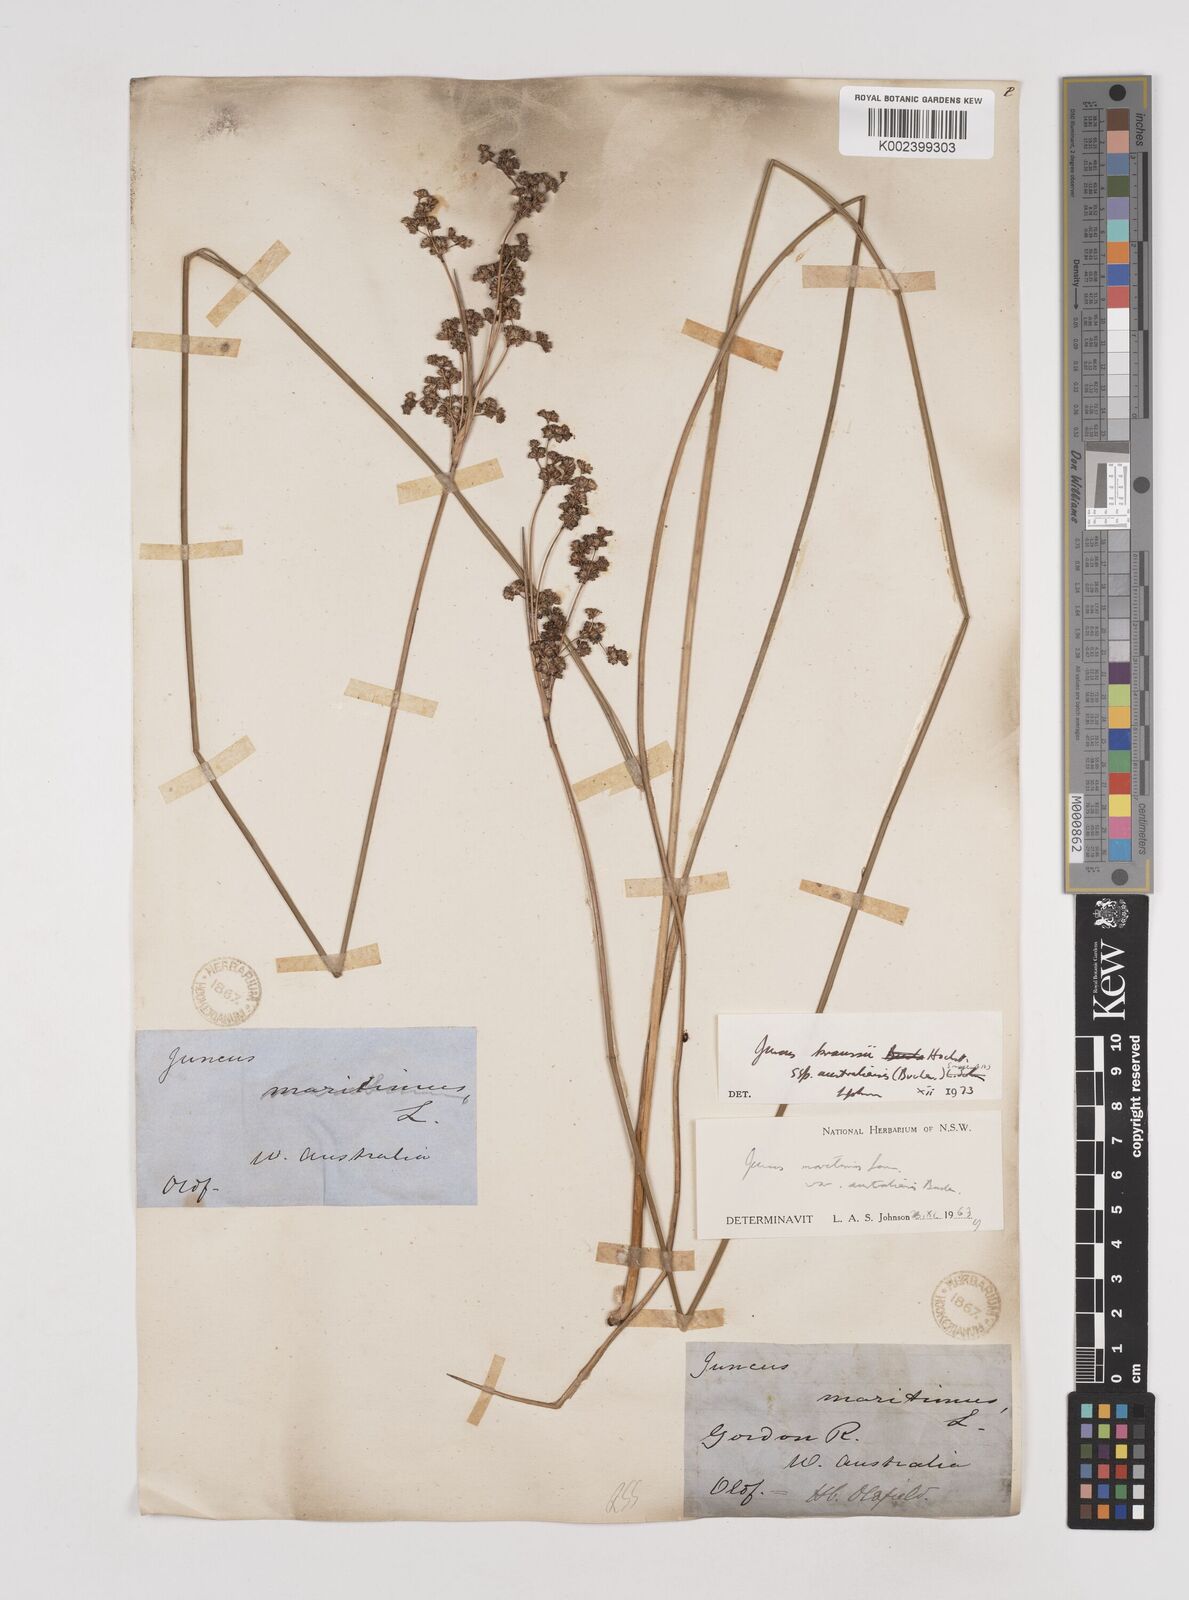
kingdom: Plantae
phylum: Tracheophyta
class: Liliopsida
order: Poales
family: Juncaceae
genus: Juncus
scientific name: Juncus kraussii
